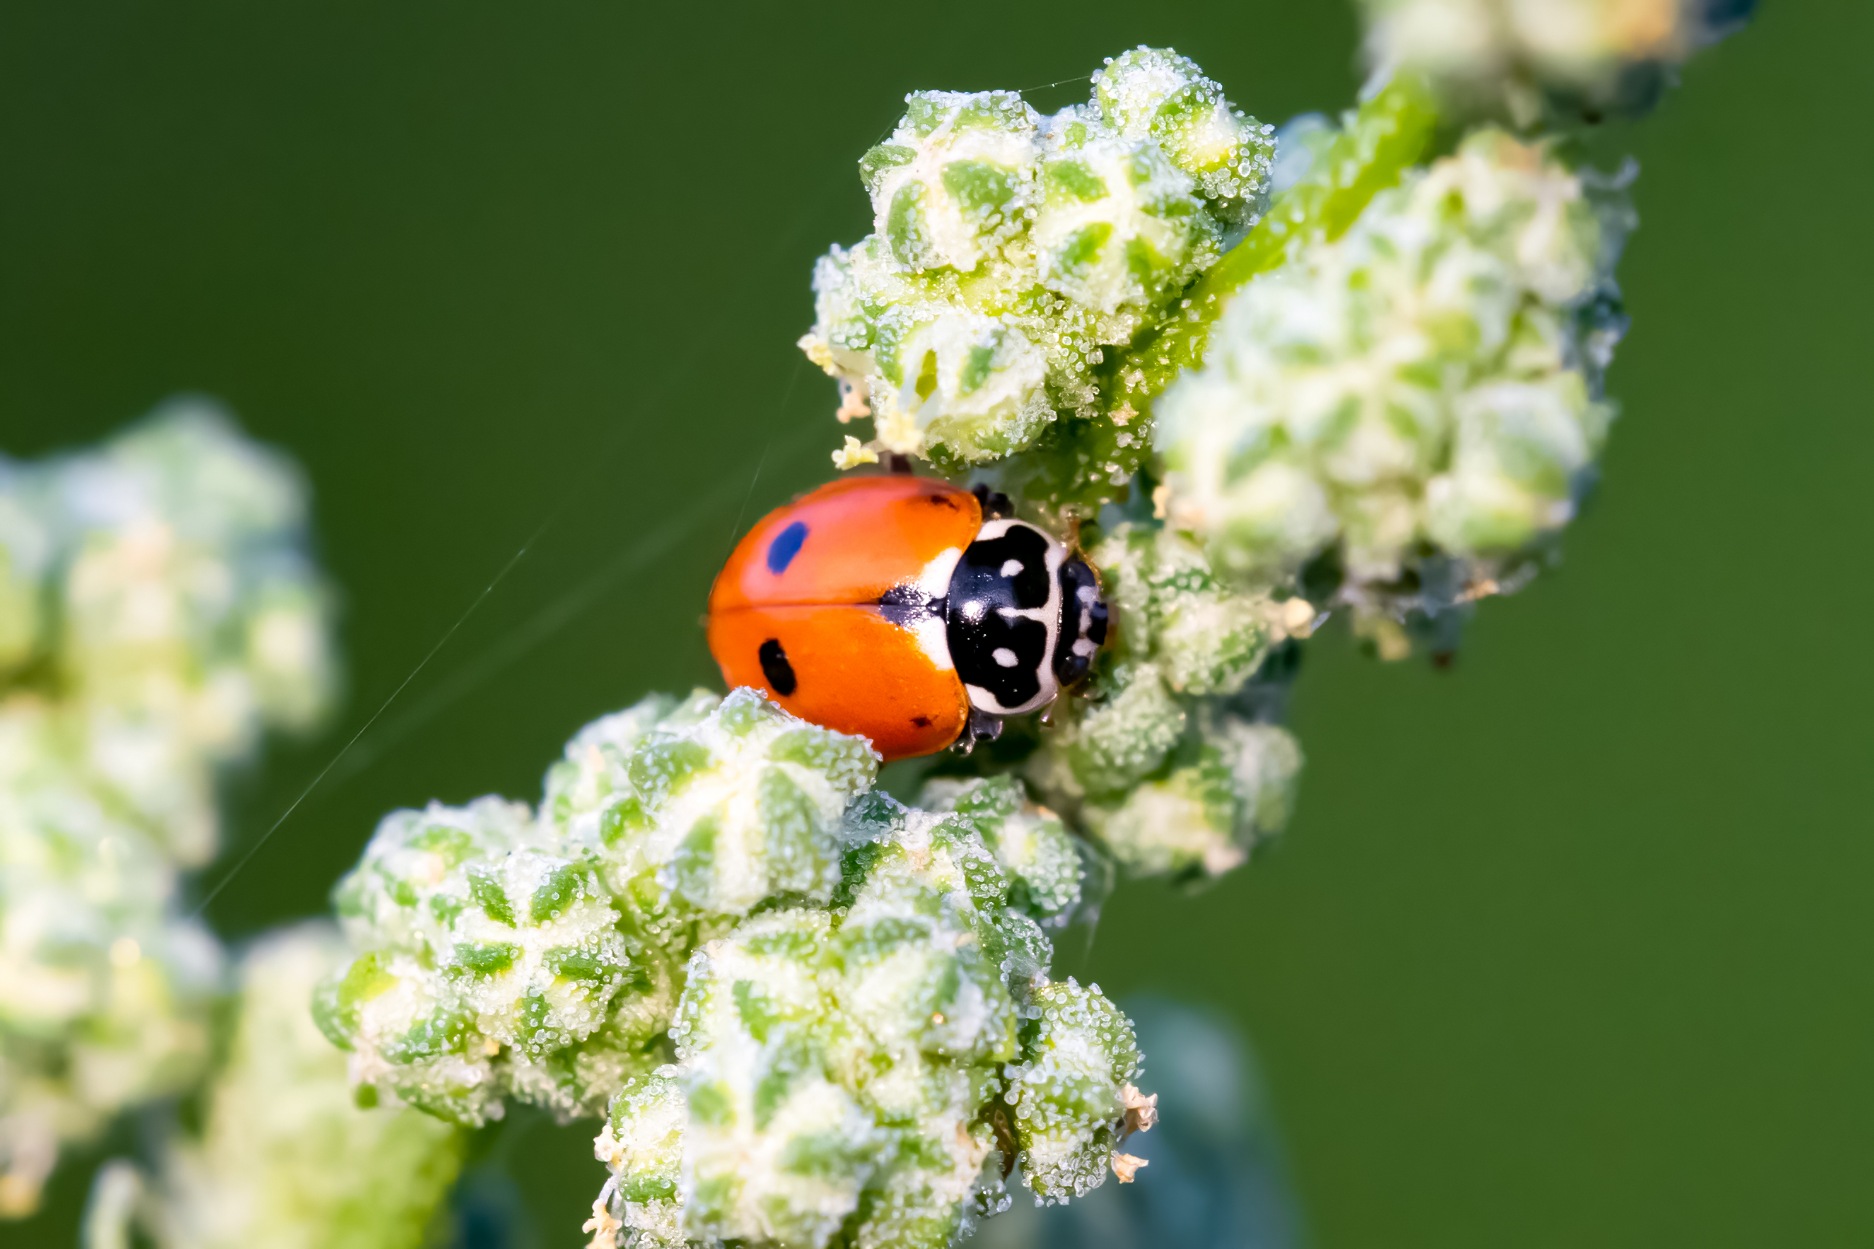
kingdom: Animalia
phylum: Arthropoda
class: Insecta
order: Coleoptera
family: Coccinellidae
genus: Hippodamia
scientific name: Hippodamia variegata
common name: Adonis' mariehøne
